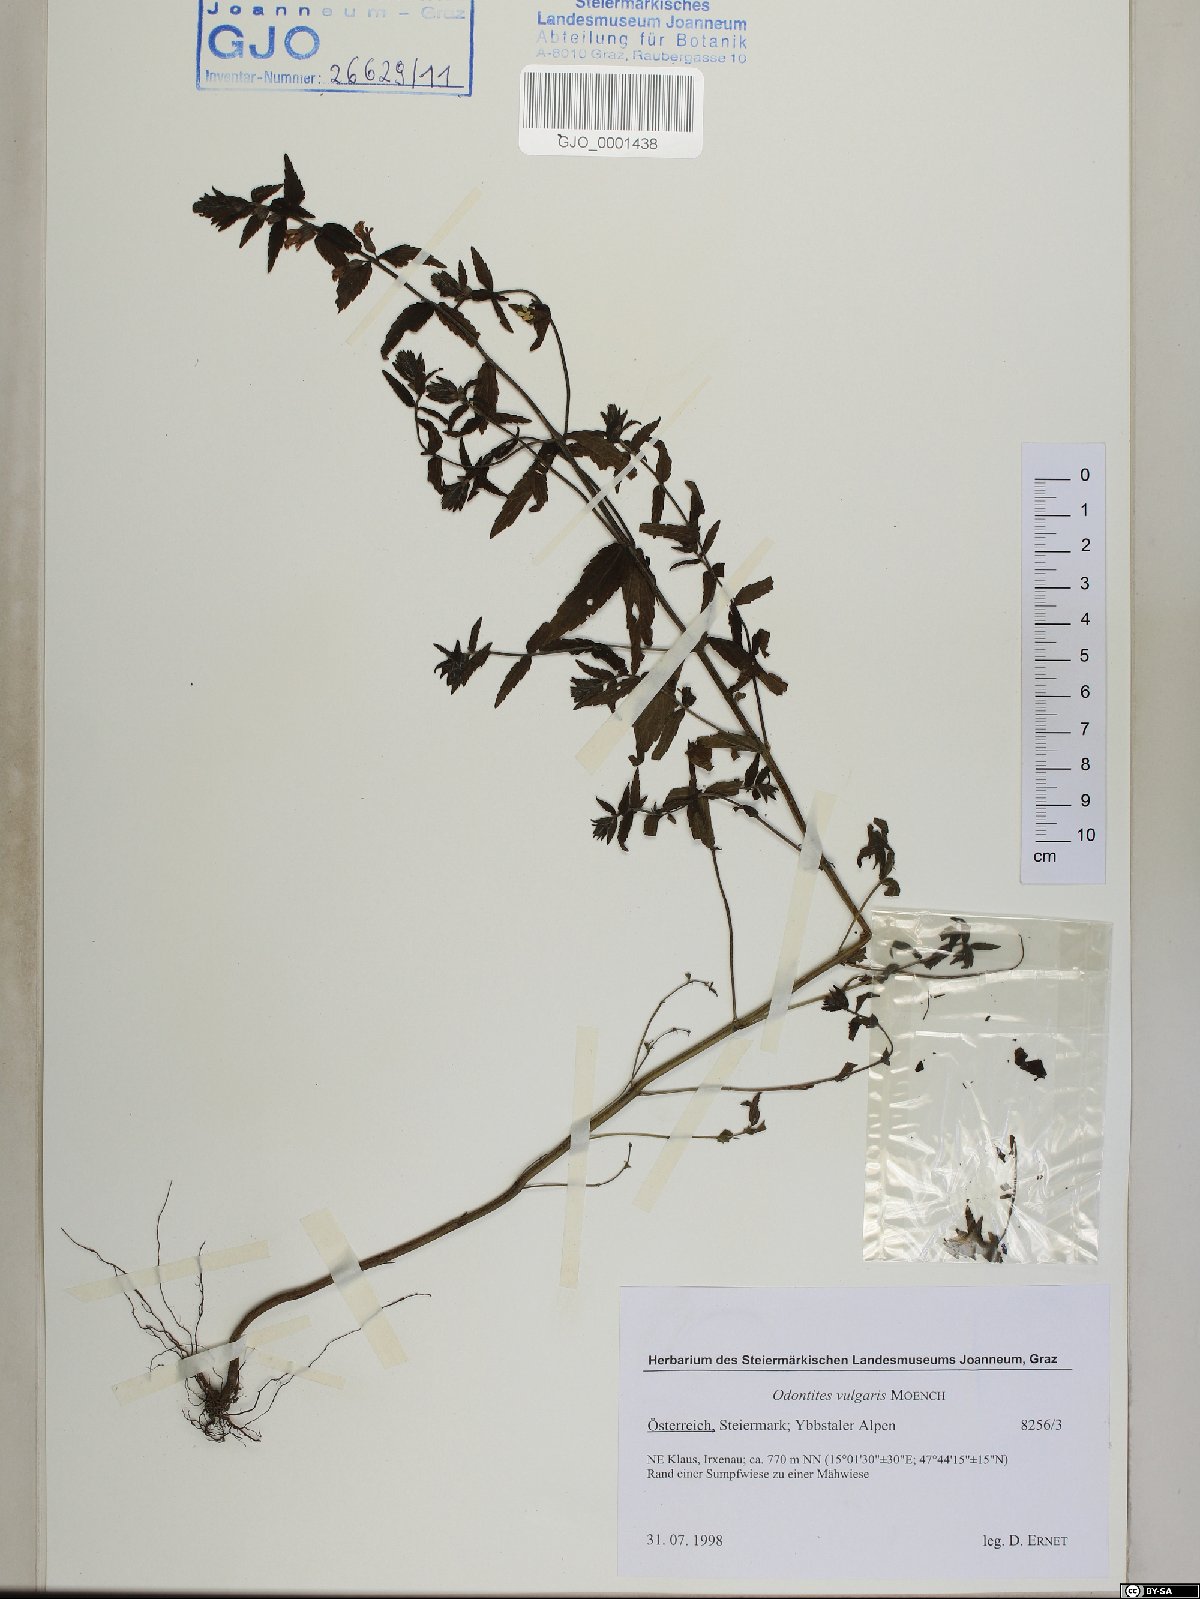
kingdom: Plantae
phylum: Tracheophyta
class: Magnoliopsida
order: Lamiales
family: Orobanchaceae
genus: Odontites
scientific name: Odontites vulgaris
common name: Broomrape
